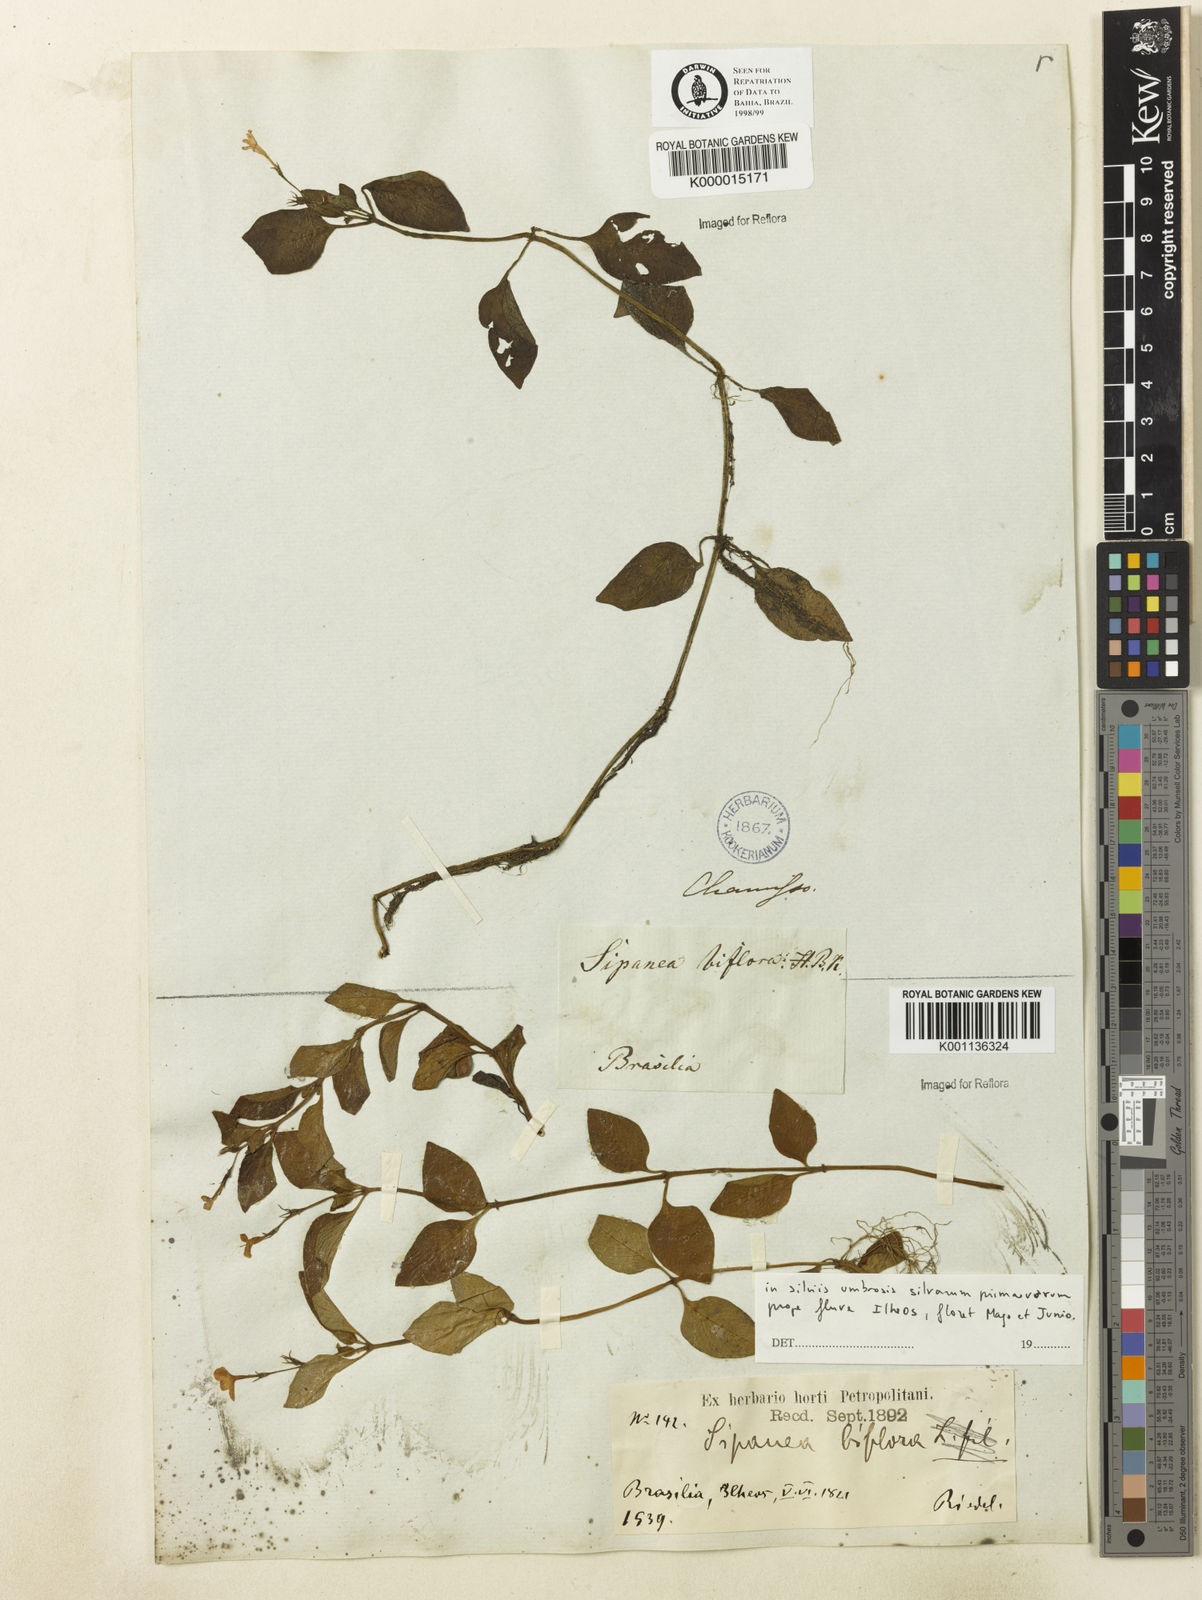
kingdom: Plantae
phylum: Tracheophyta
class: Magnoliopsida
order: Gentianales
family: Rubiaceae
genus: Sipanea
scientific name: Sipanea biflora
